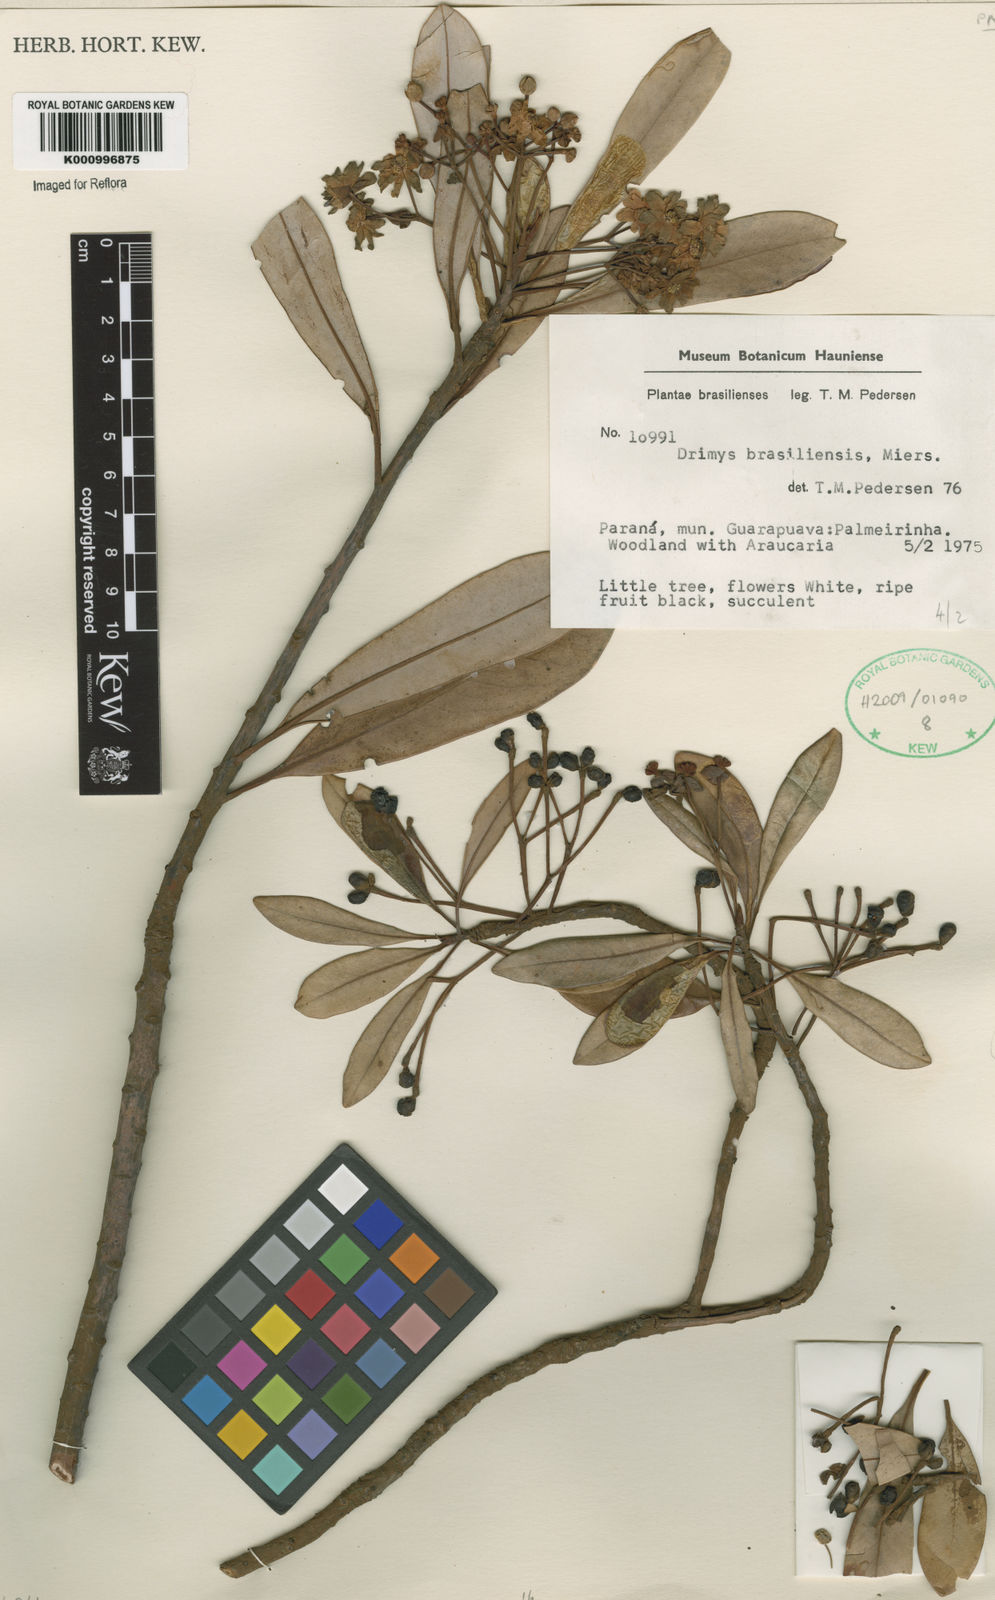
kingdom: Plantae
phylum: Tracheophyta
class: Magnoliopsida
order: Canellales
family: Winteraceae
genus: Drimys
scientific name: Drimys brasiliensis
